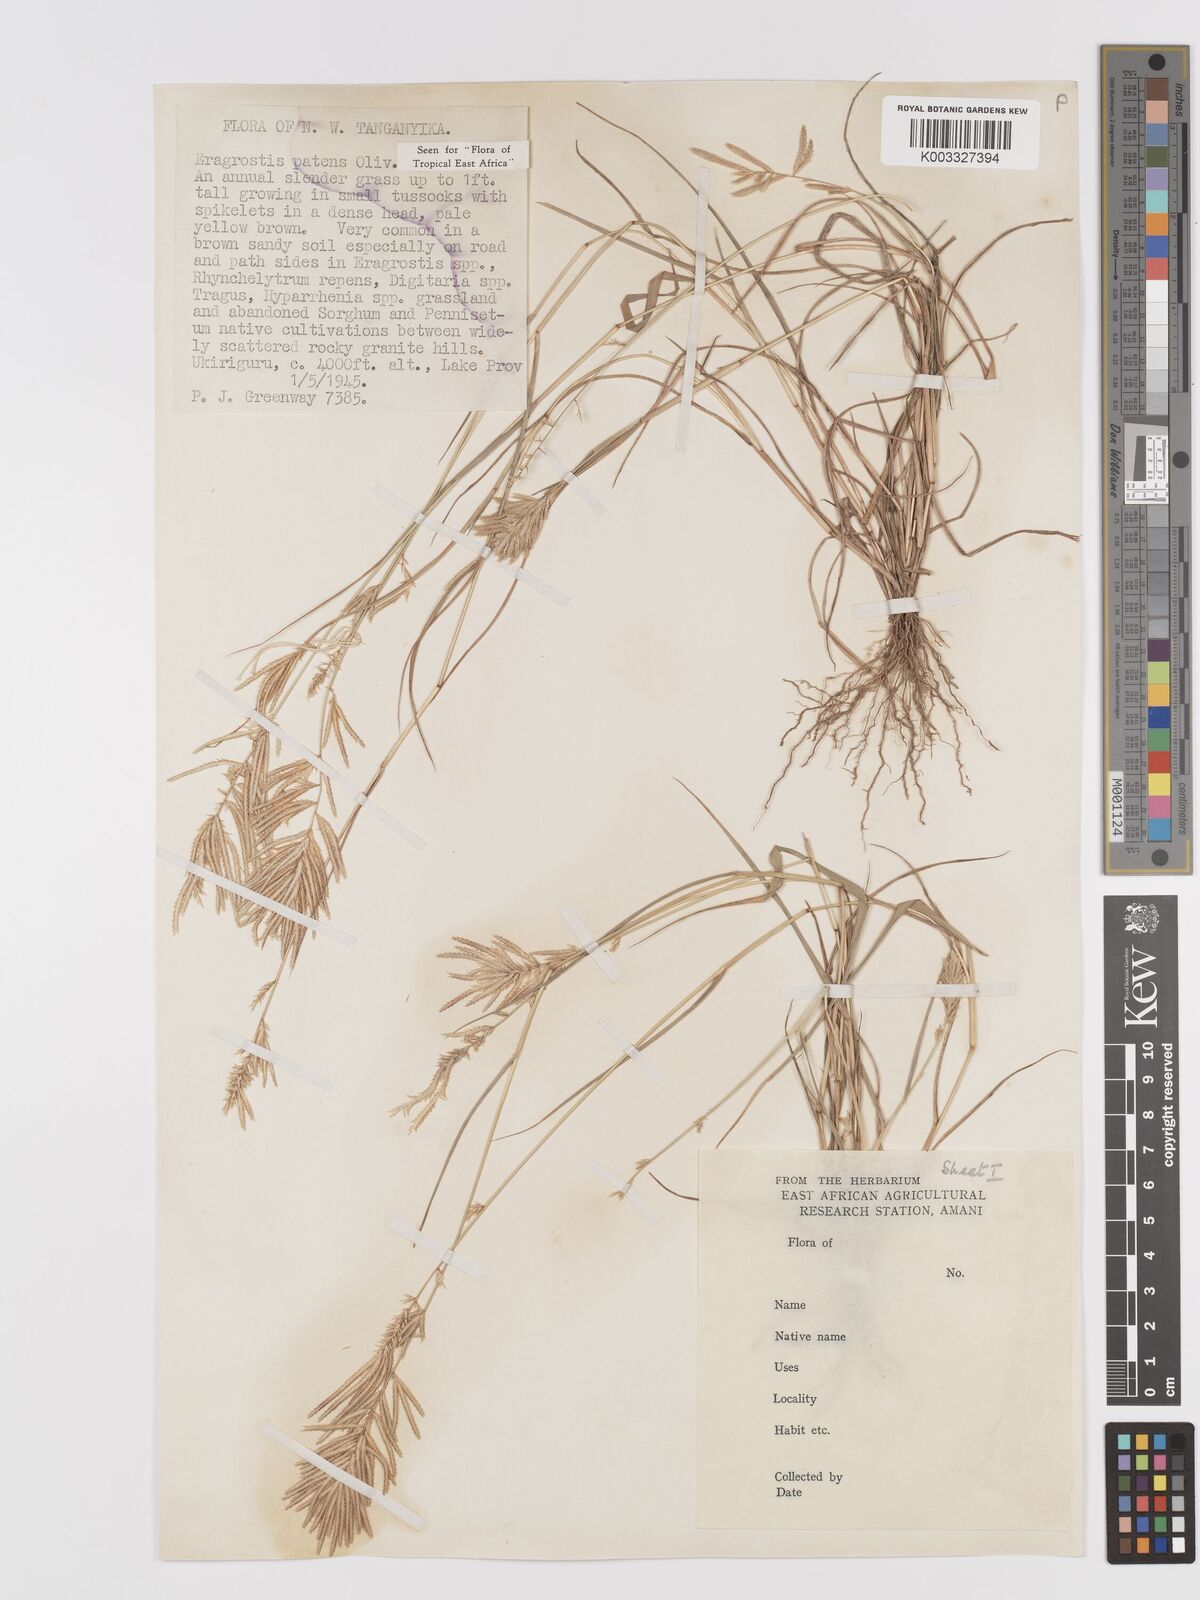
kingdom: Plantae
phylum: Tracheophyta
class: Liliopsida
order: Poales
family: Poaceae
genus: Eragrostis
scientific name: Eragrostis patens
